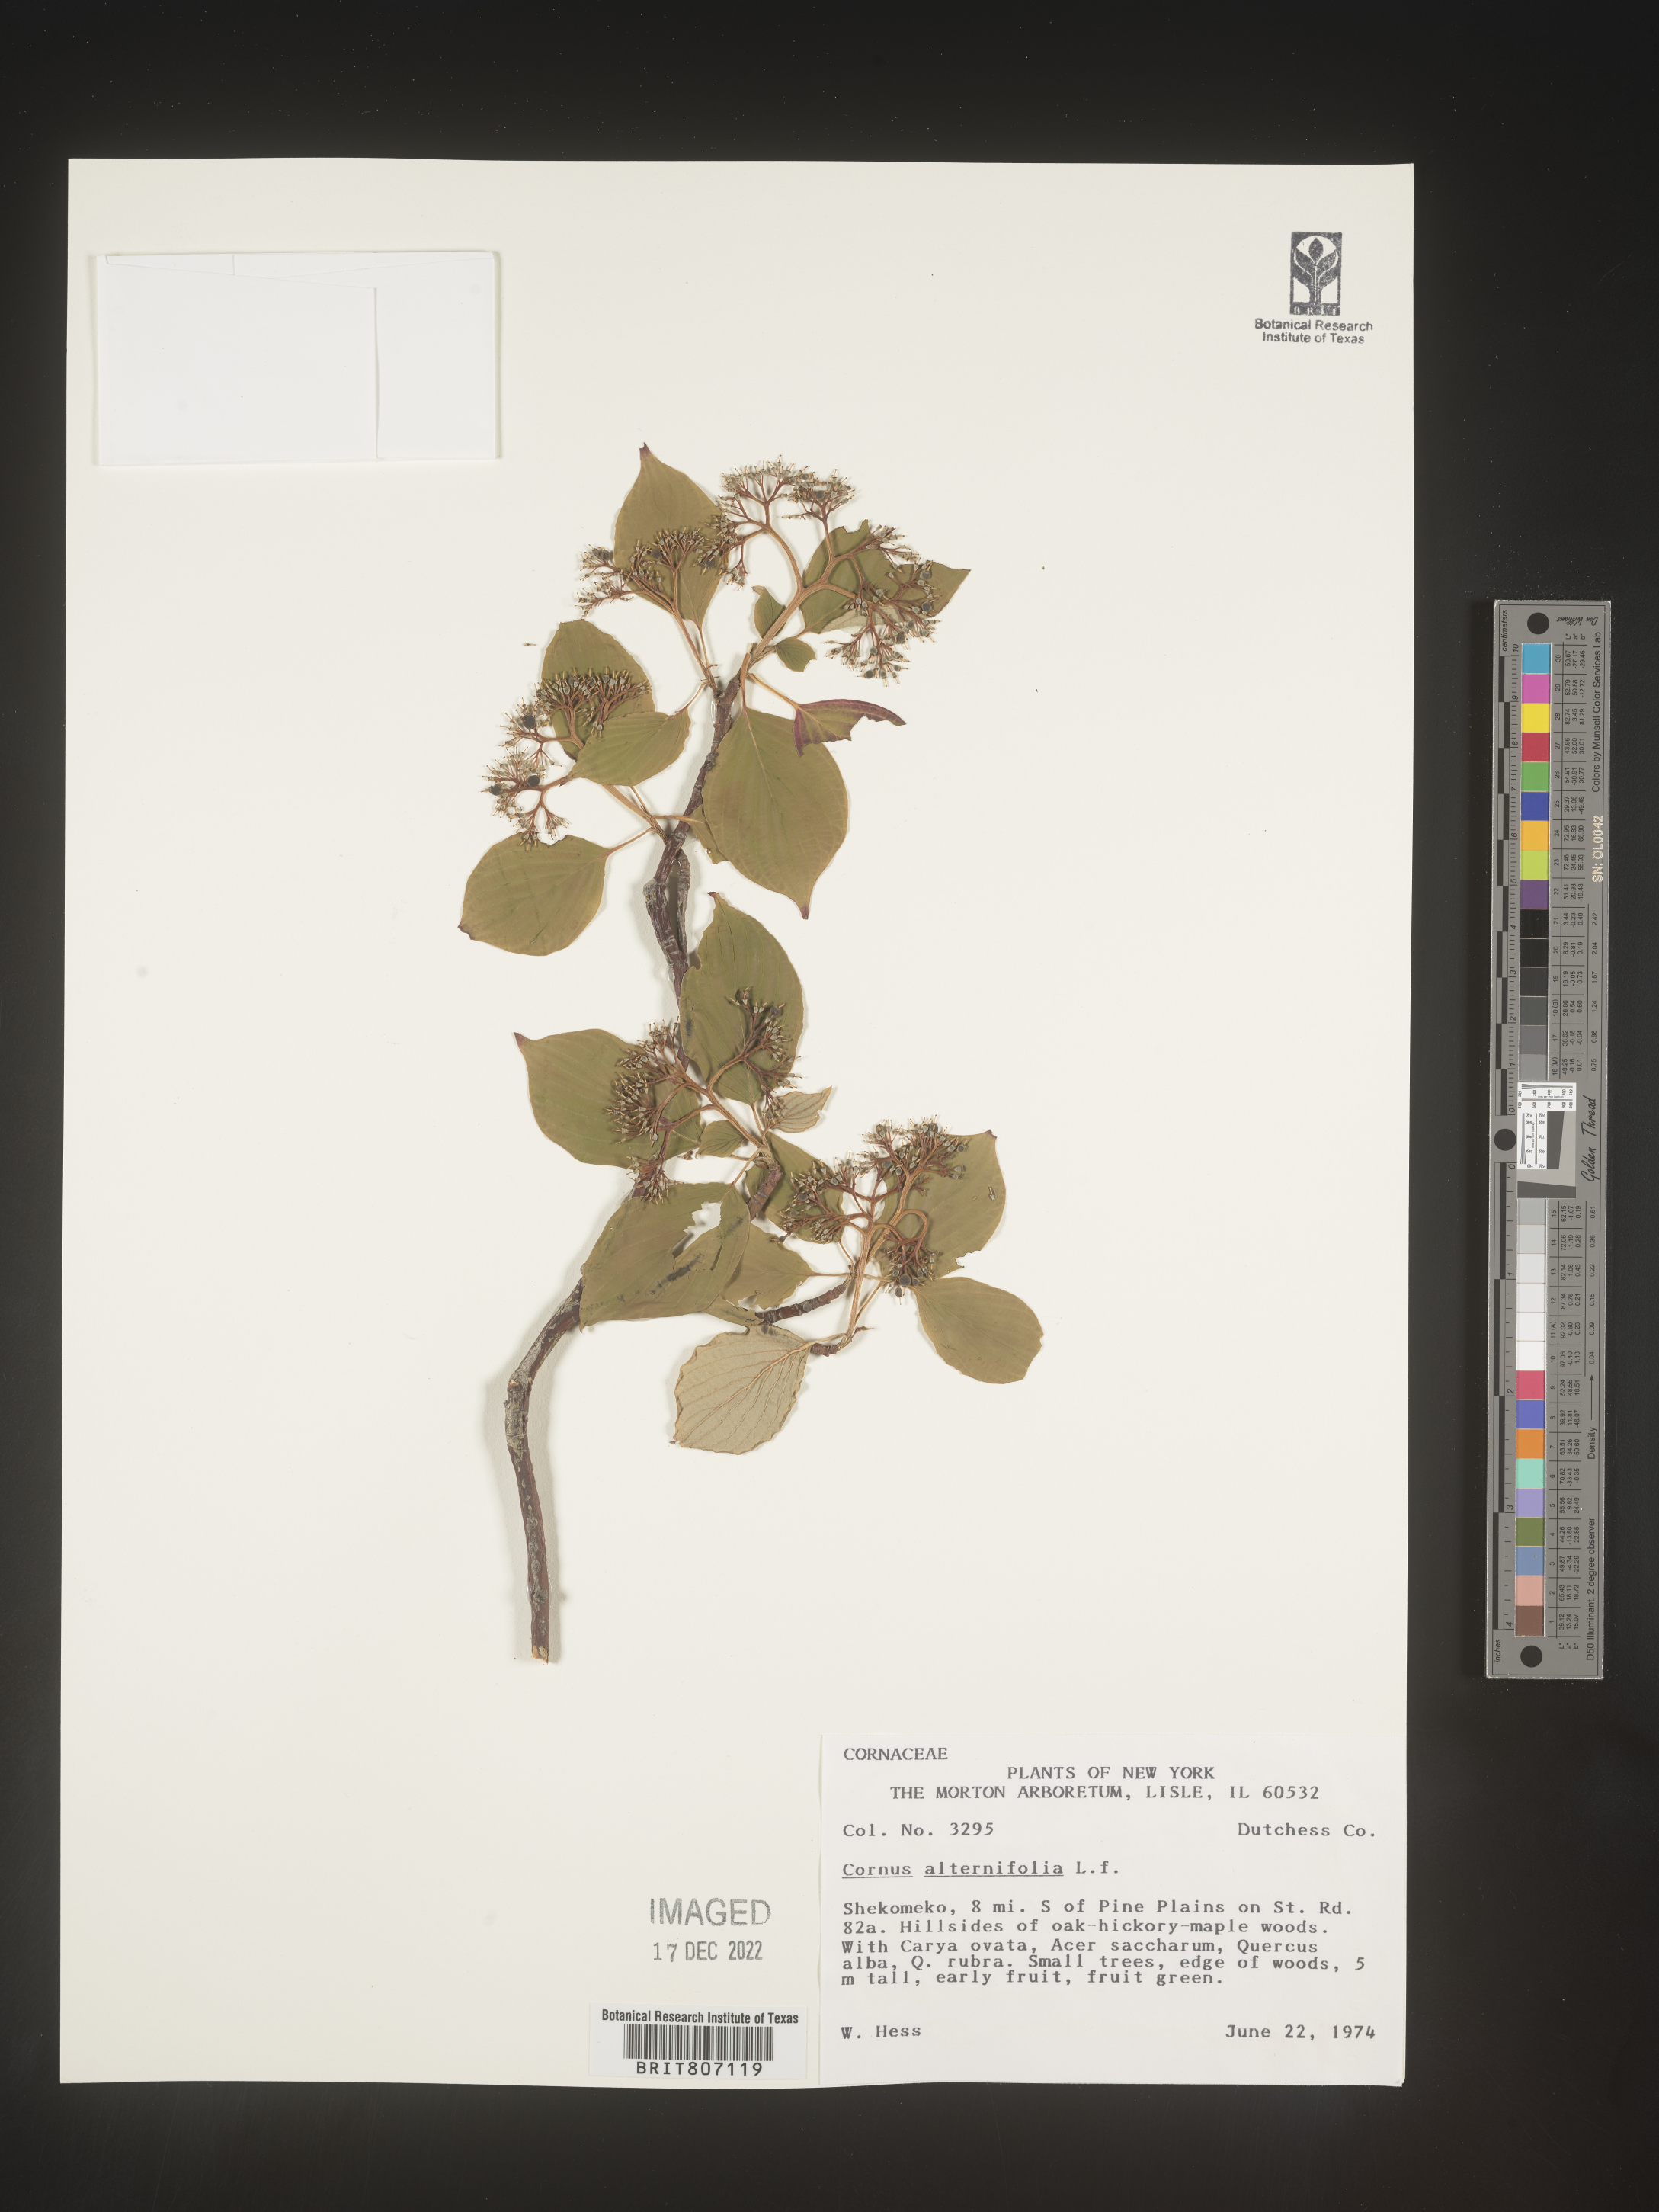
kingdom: Plantae
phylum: Tracheophyta
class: Magnoliopsida
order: Cornales
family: Cornaceae
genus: Cornus
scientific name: Cornus alternifolia
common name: Pagoda dogwood
